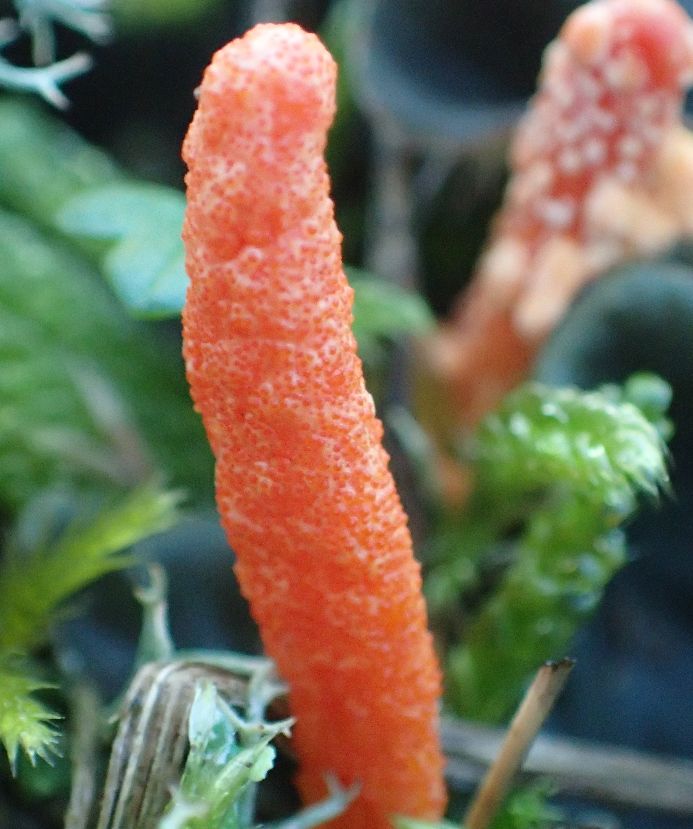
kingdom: Fungi
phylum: Ascomycota
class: Sordariomycetes
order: Hypocreales
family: Cordycipitaceae
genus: Cordyceps
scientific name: Cordyceps militaris
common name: puppe-snyltekølle
